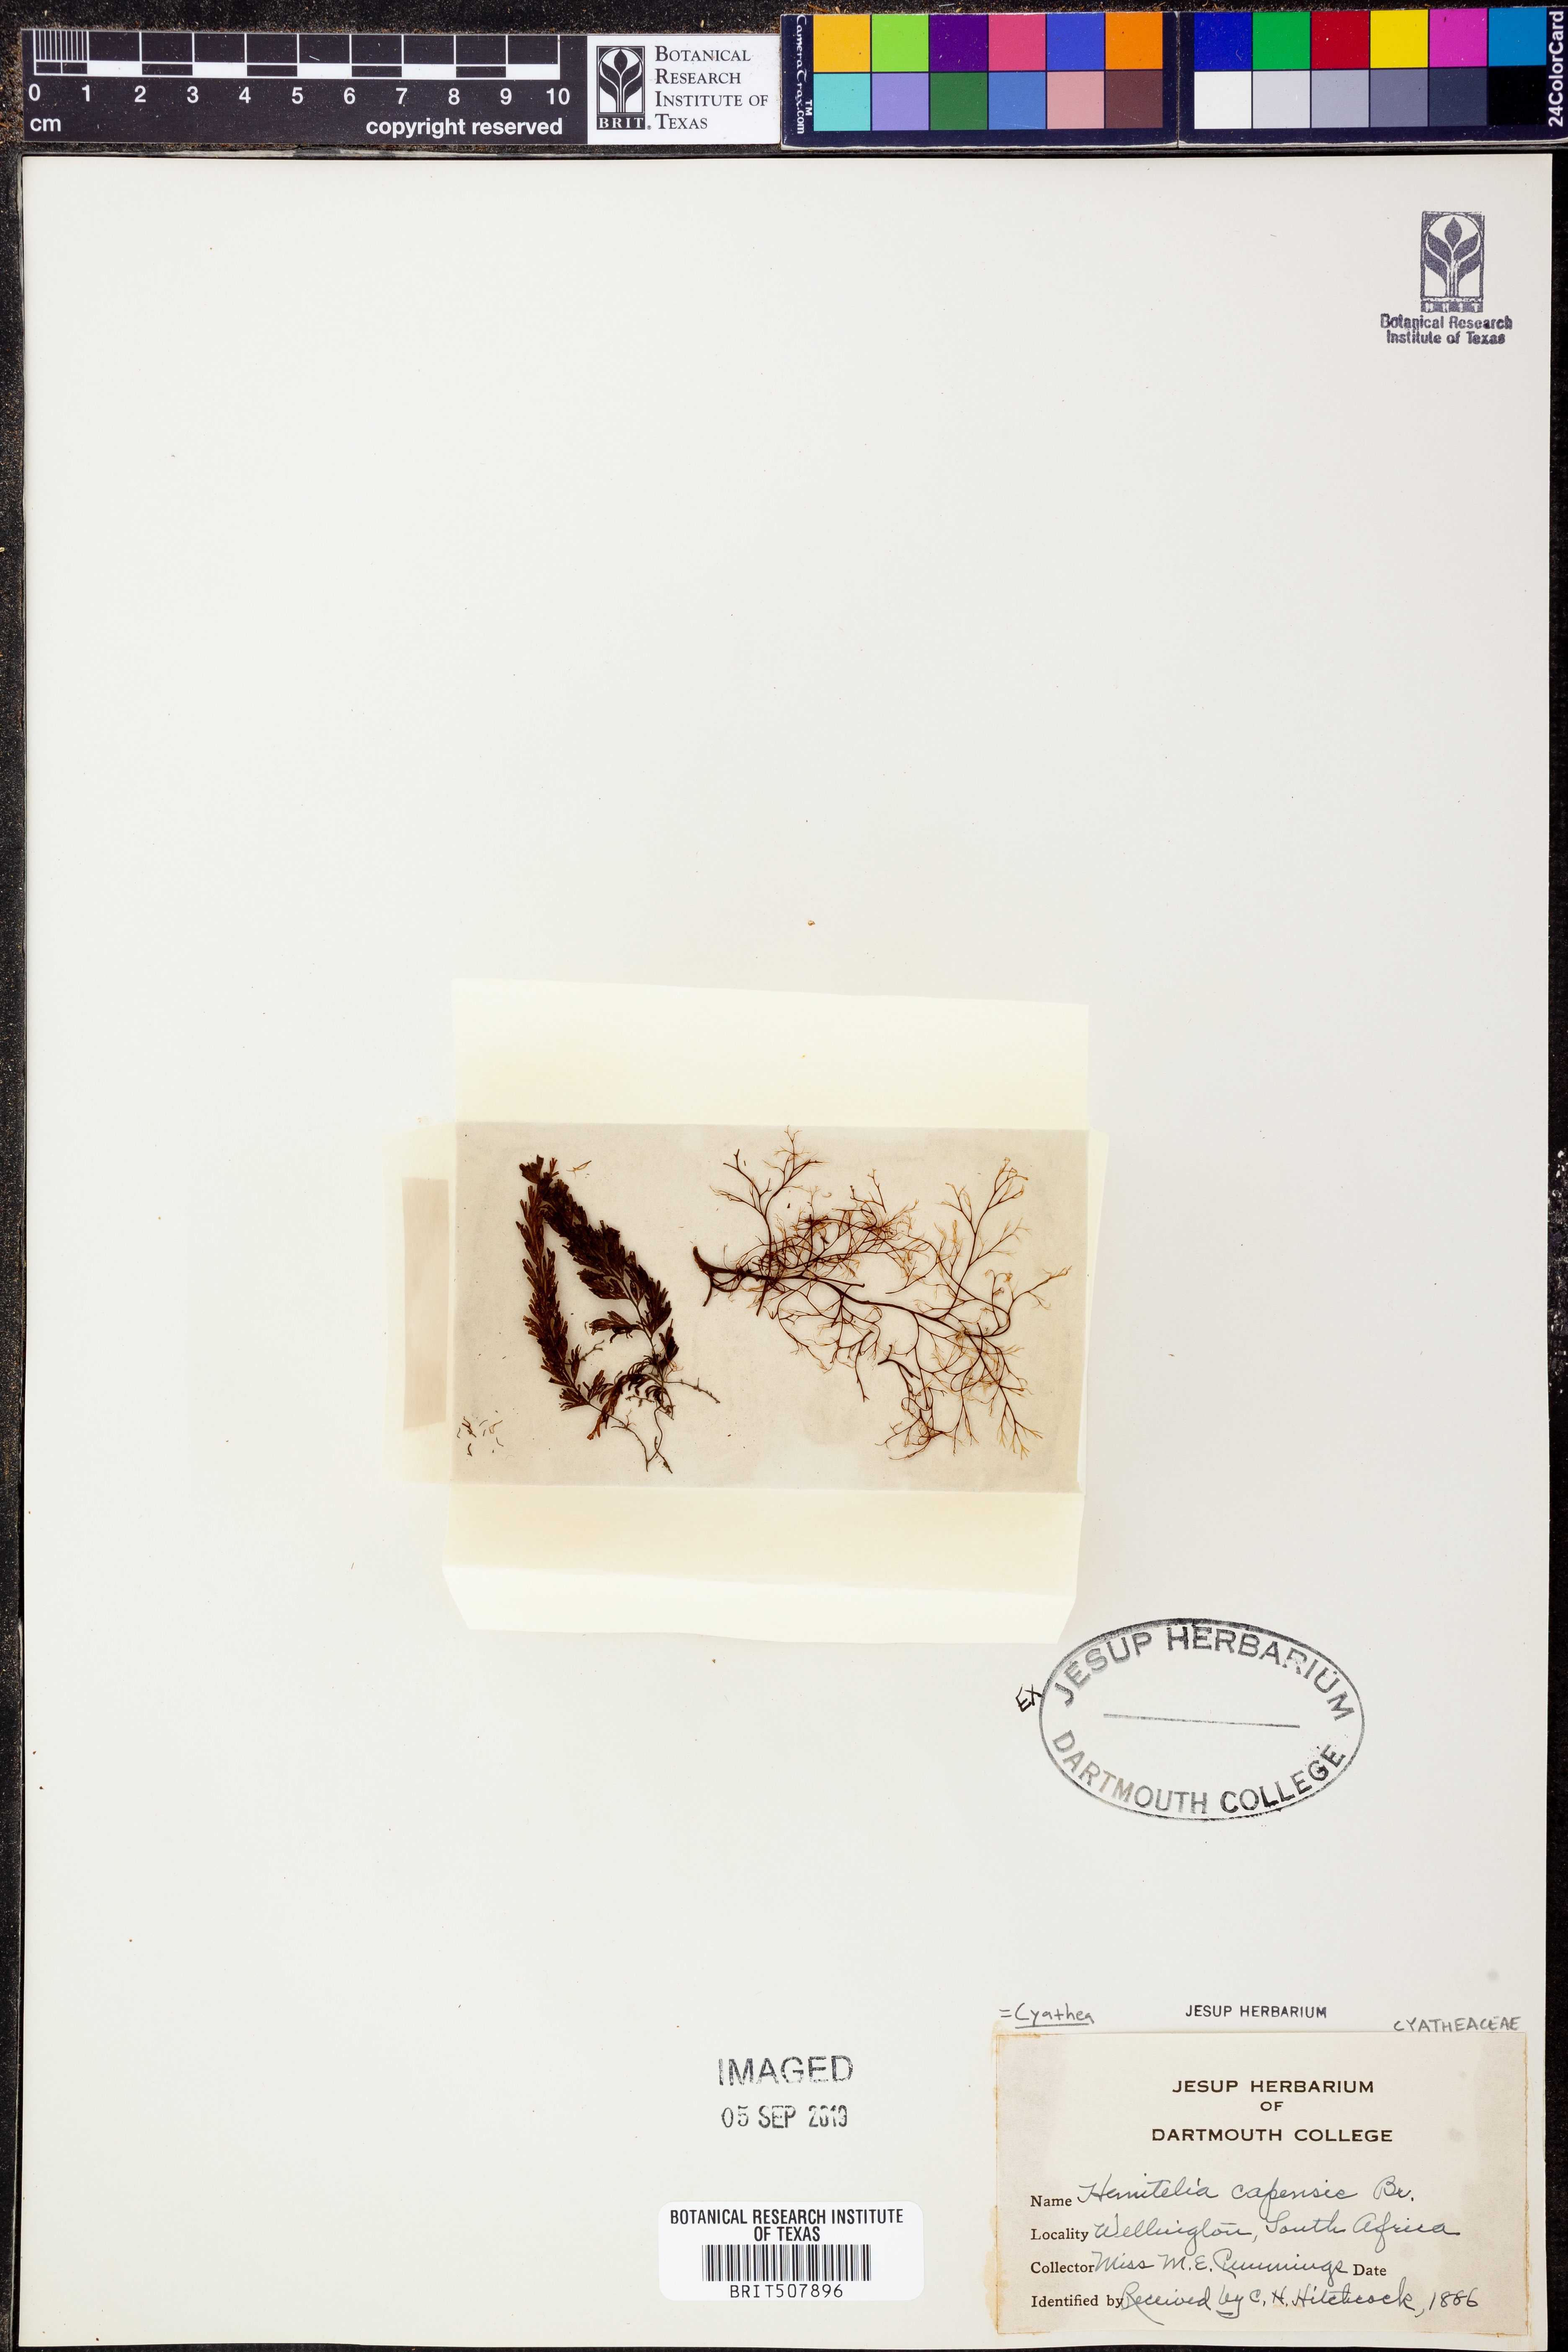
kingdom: Plantae
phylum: Tracheophyta
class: Polypodiopsida
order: Cyatheales
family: Cyatheaceae
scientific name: Cyatheaceae
